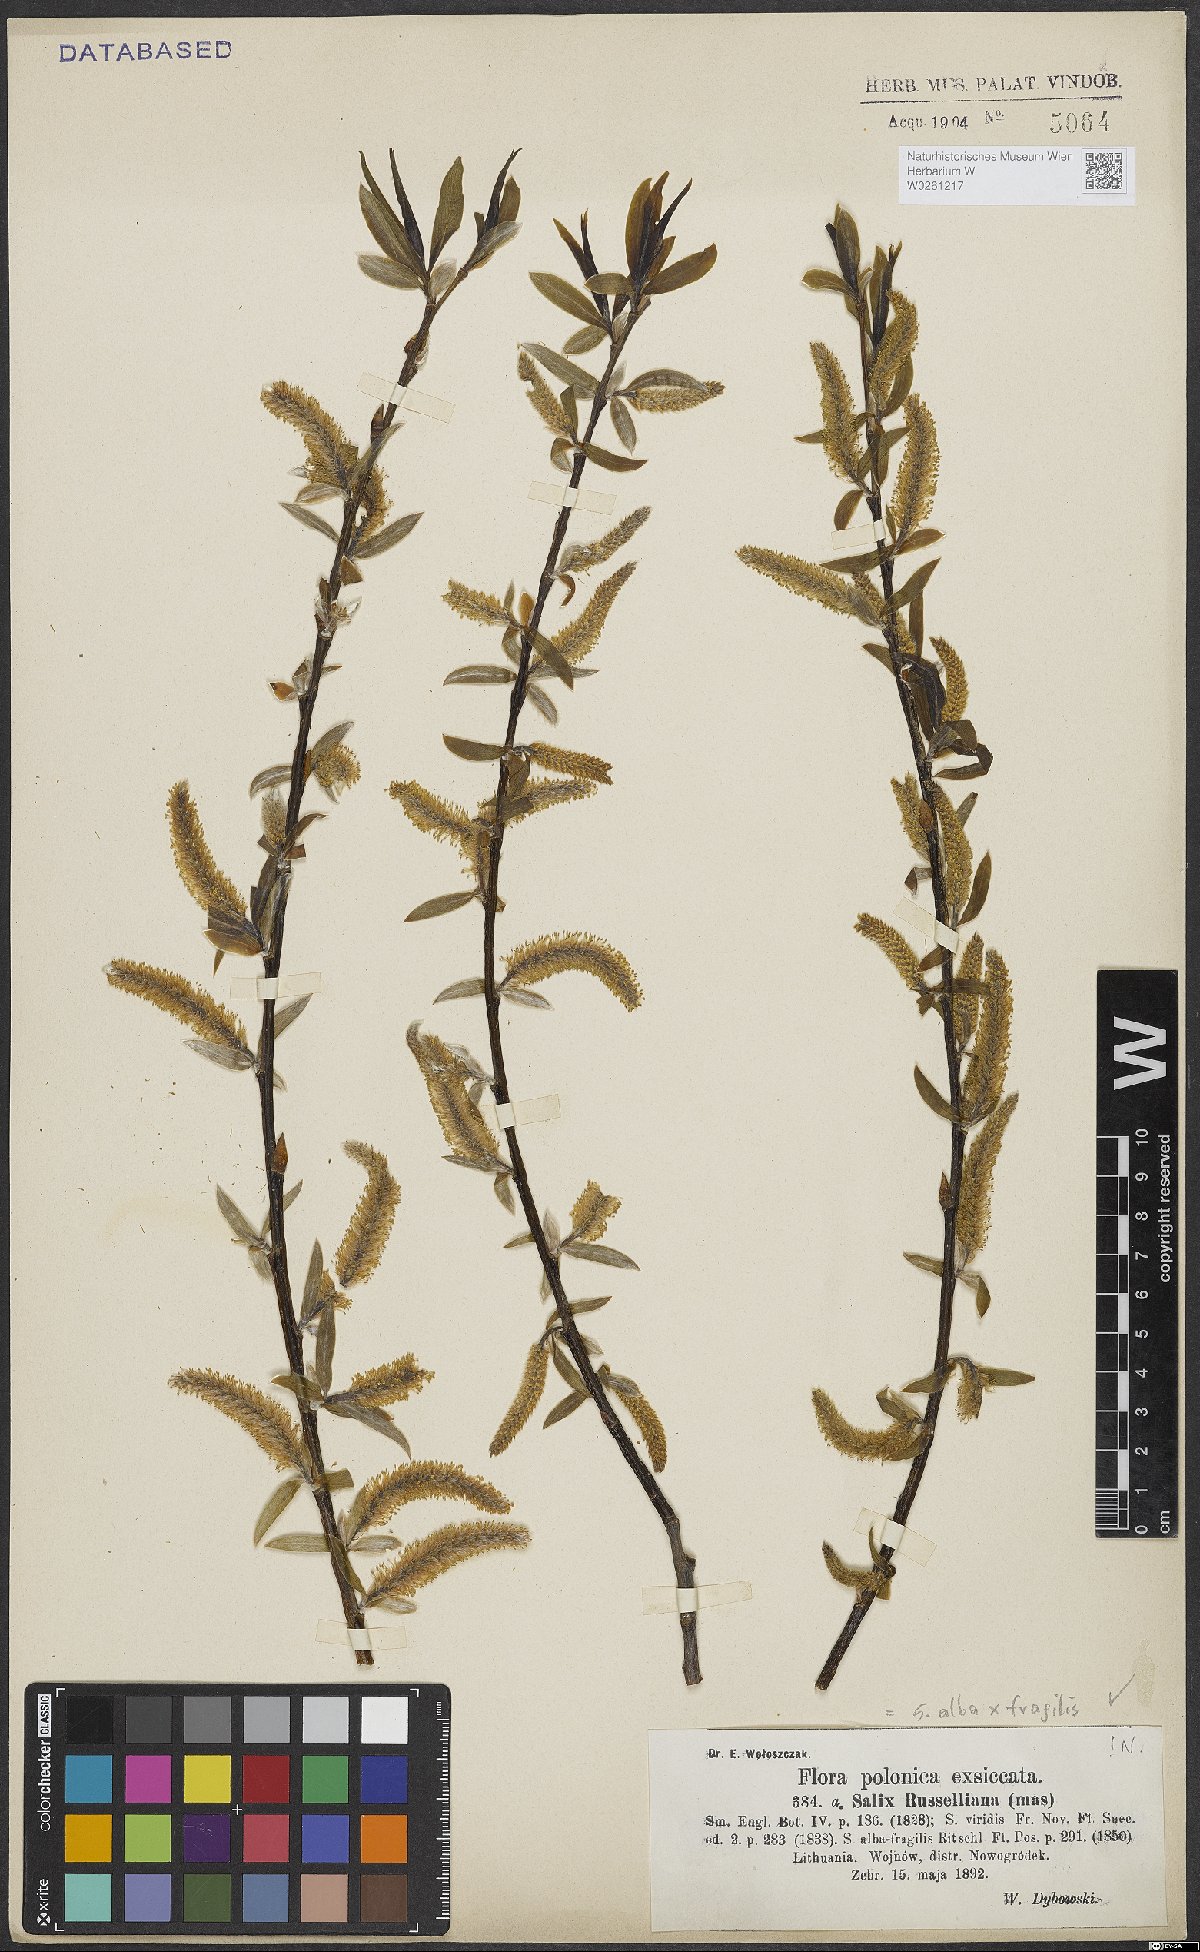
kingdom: Plantae
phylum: Tracheophyta
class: Magnoliopsida
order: Malpighiales
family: Salicaceae
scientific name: Salicaceae
